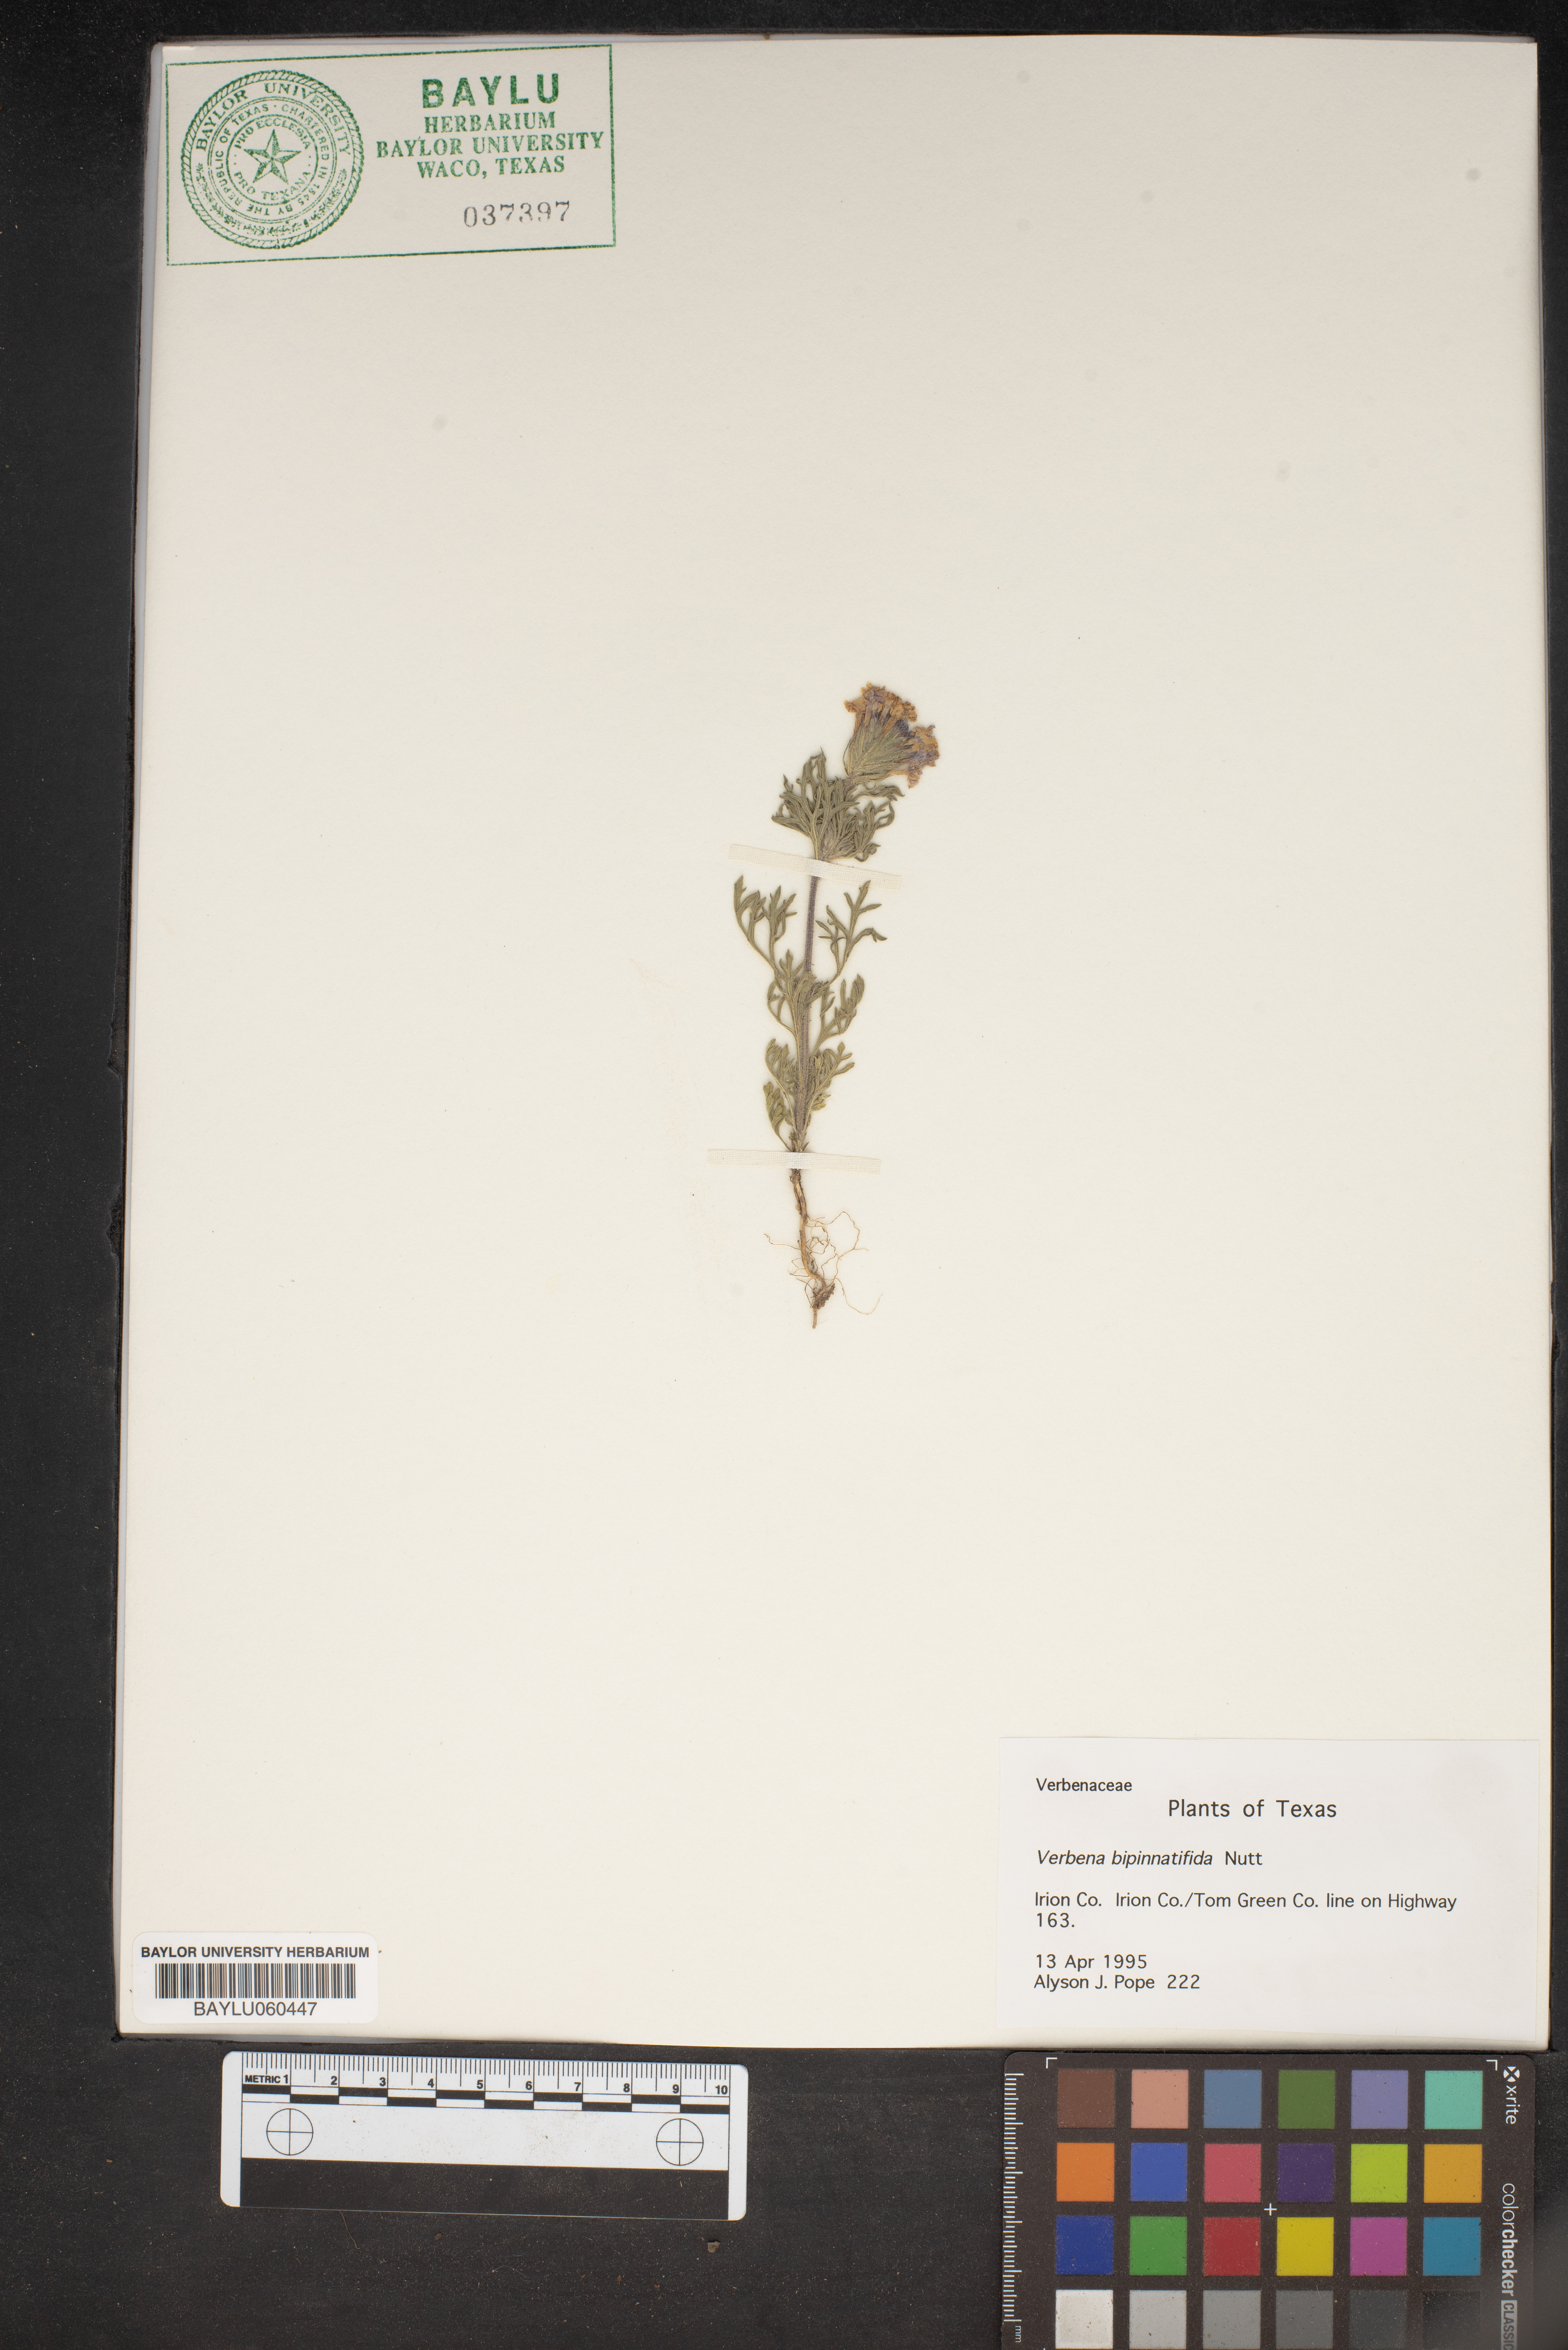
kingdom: Plantae
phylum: Tracheophyta
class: Magnoliopsida
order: Lamiales
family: Verbenaceae
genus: Verbena
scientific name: Verbena bipinnatifida
